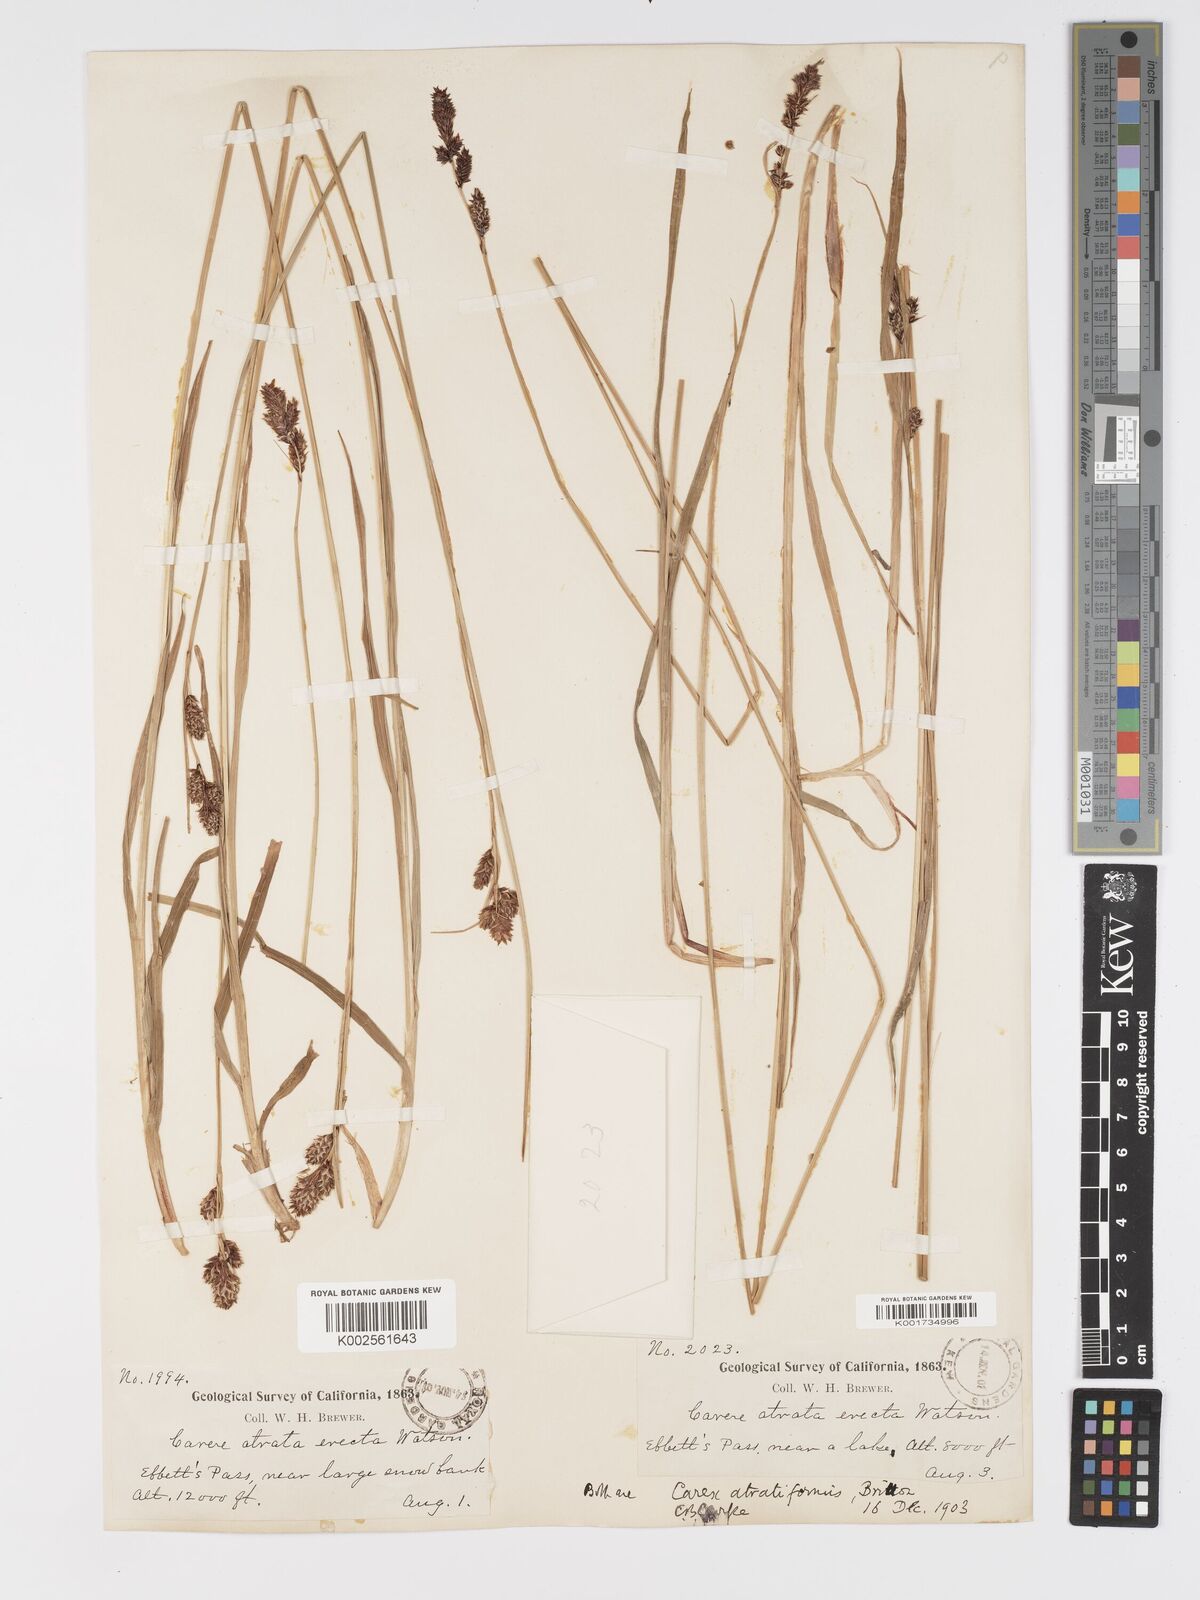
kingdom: Plantae
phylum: Tracheophyta
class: Liliopsida
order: Poales
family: Cyperaceae
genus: Carex
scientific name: Carex heteroneura
